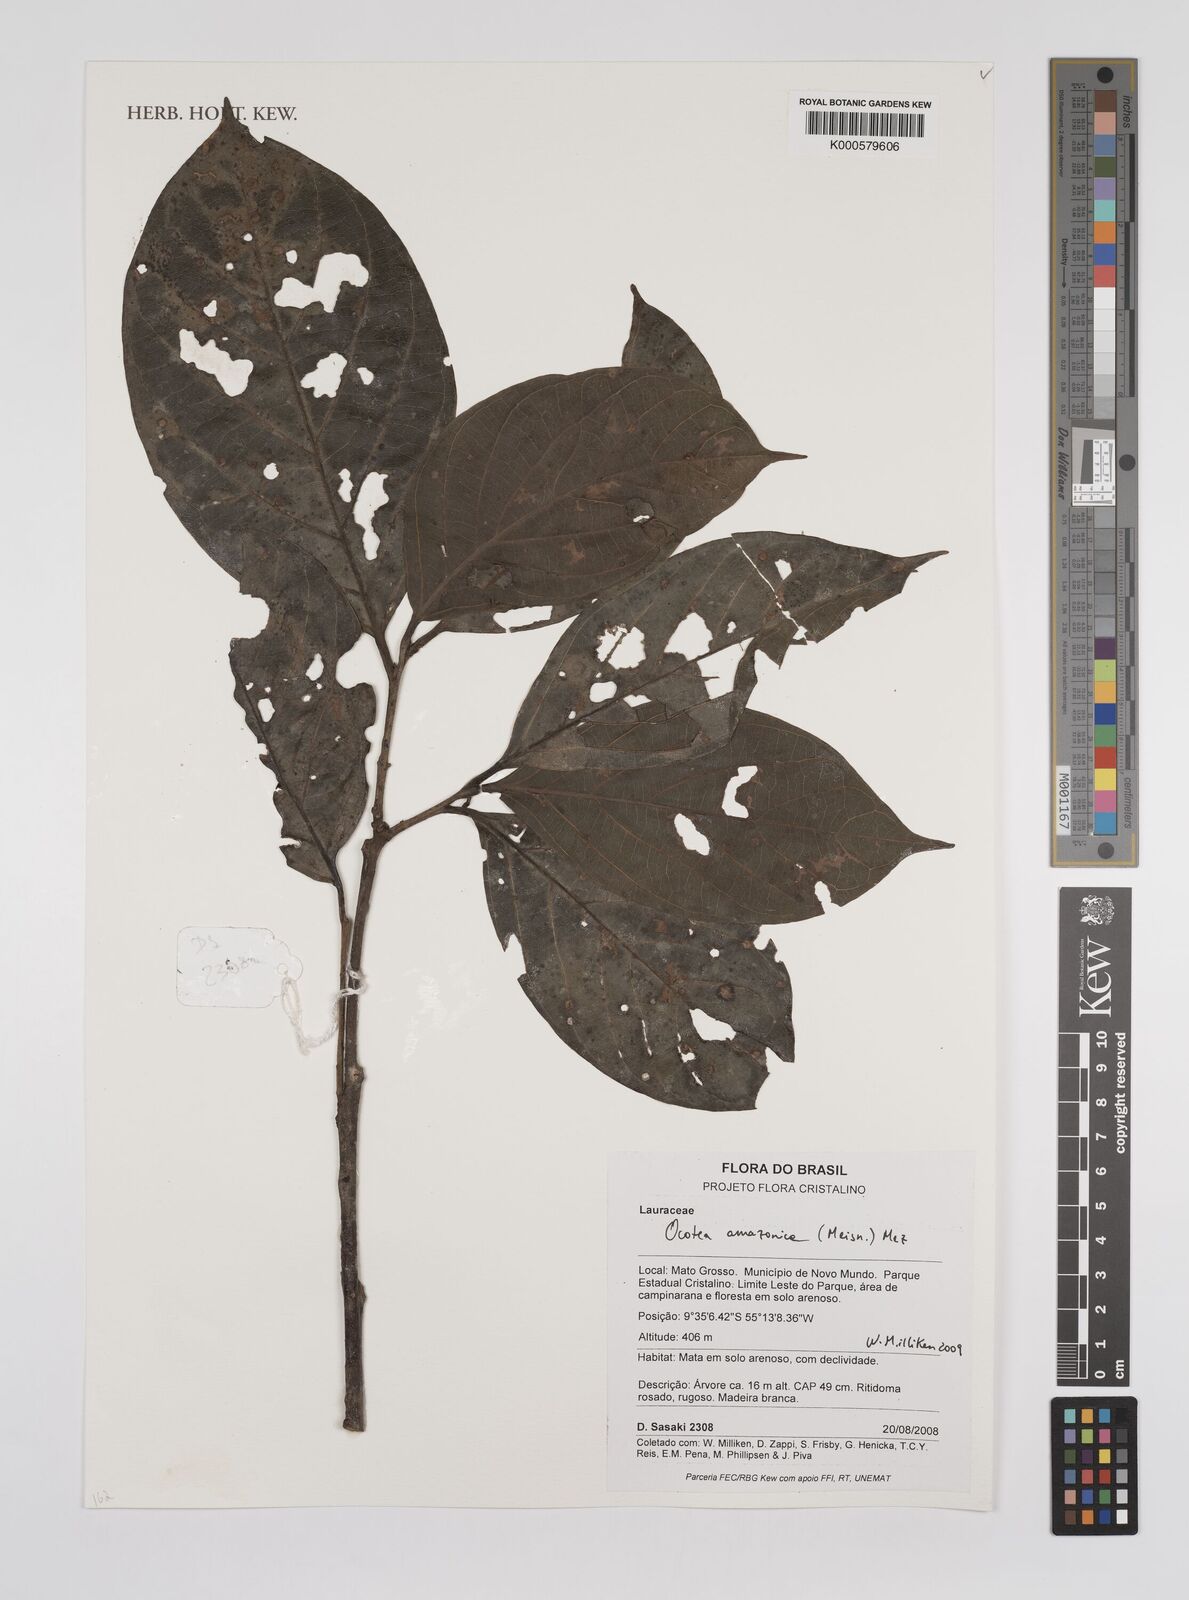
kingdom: Plantae
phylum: Tracheophyta
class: Magnoliopsida
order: Laurales
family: Lauraceae
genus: Ocotea
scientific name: Ocotea amazonica
